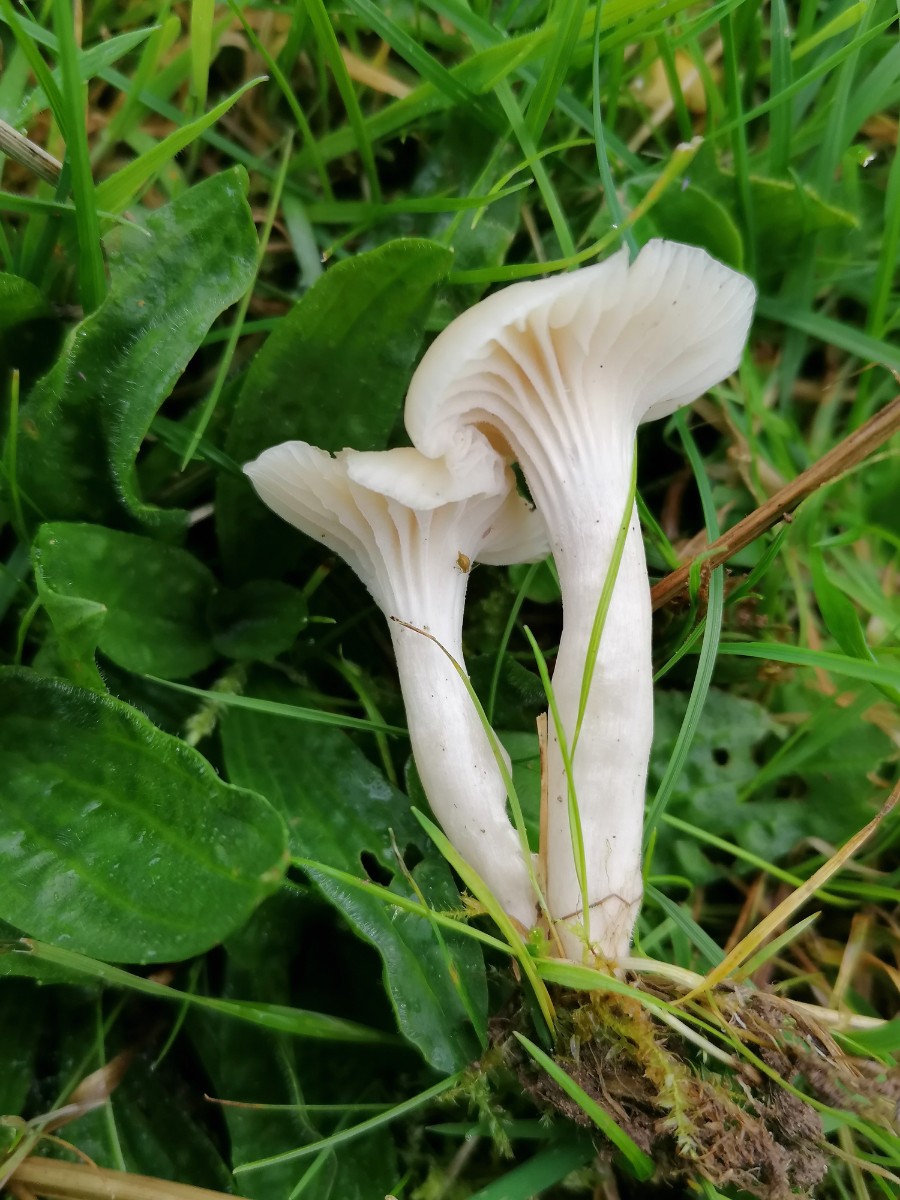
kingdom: Fungi
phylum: Basidiomycota
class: Agaricomycetes
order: Agaricales
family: Hygrophoraceae
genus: Cuphophyllus
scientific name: Cuphophyllus virgineus
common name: snehvid vokshat
